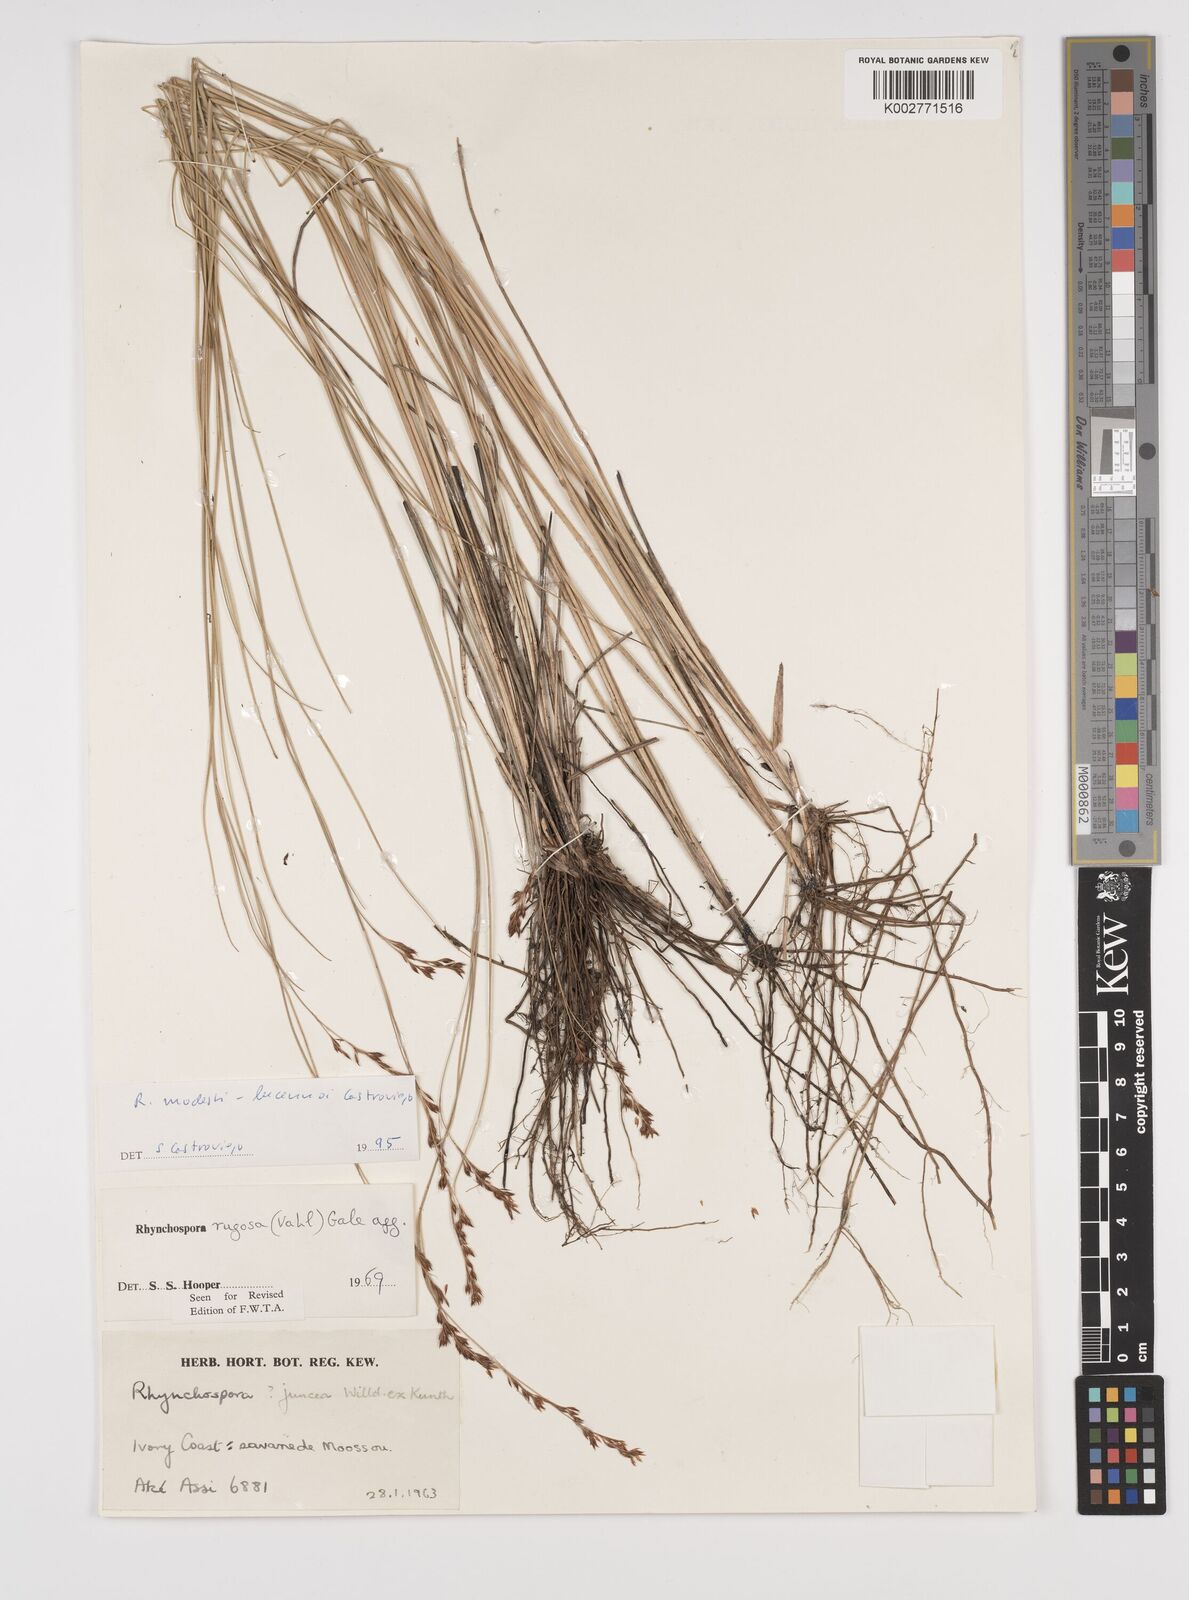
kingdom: Plantae
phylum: Tracheophyta
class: Liliopsida
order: Poales
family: Cyperaceae
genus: Rhynchospora
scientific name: Rhynchospora modesti-lucennoi
